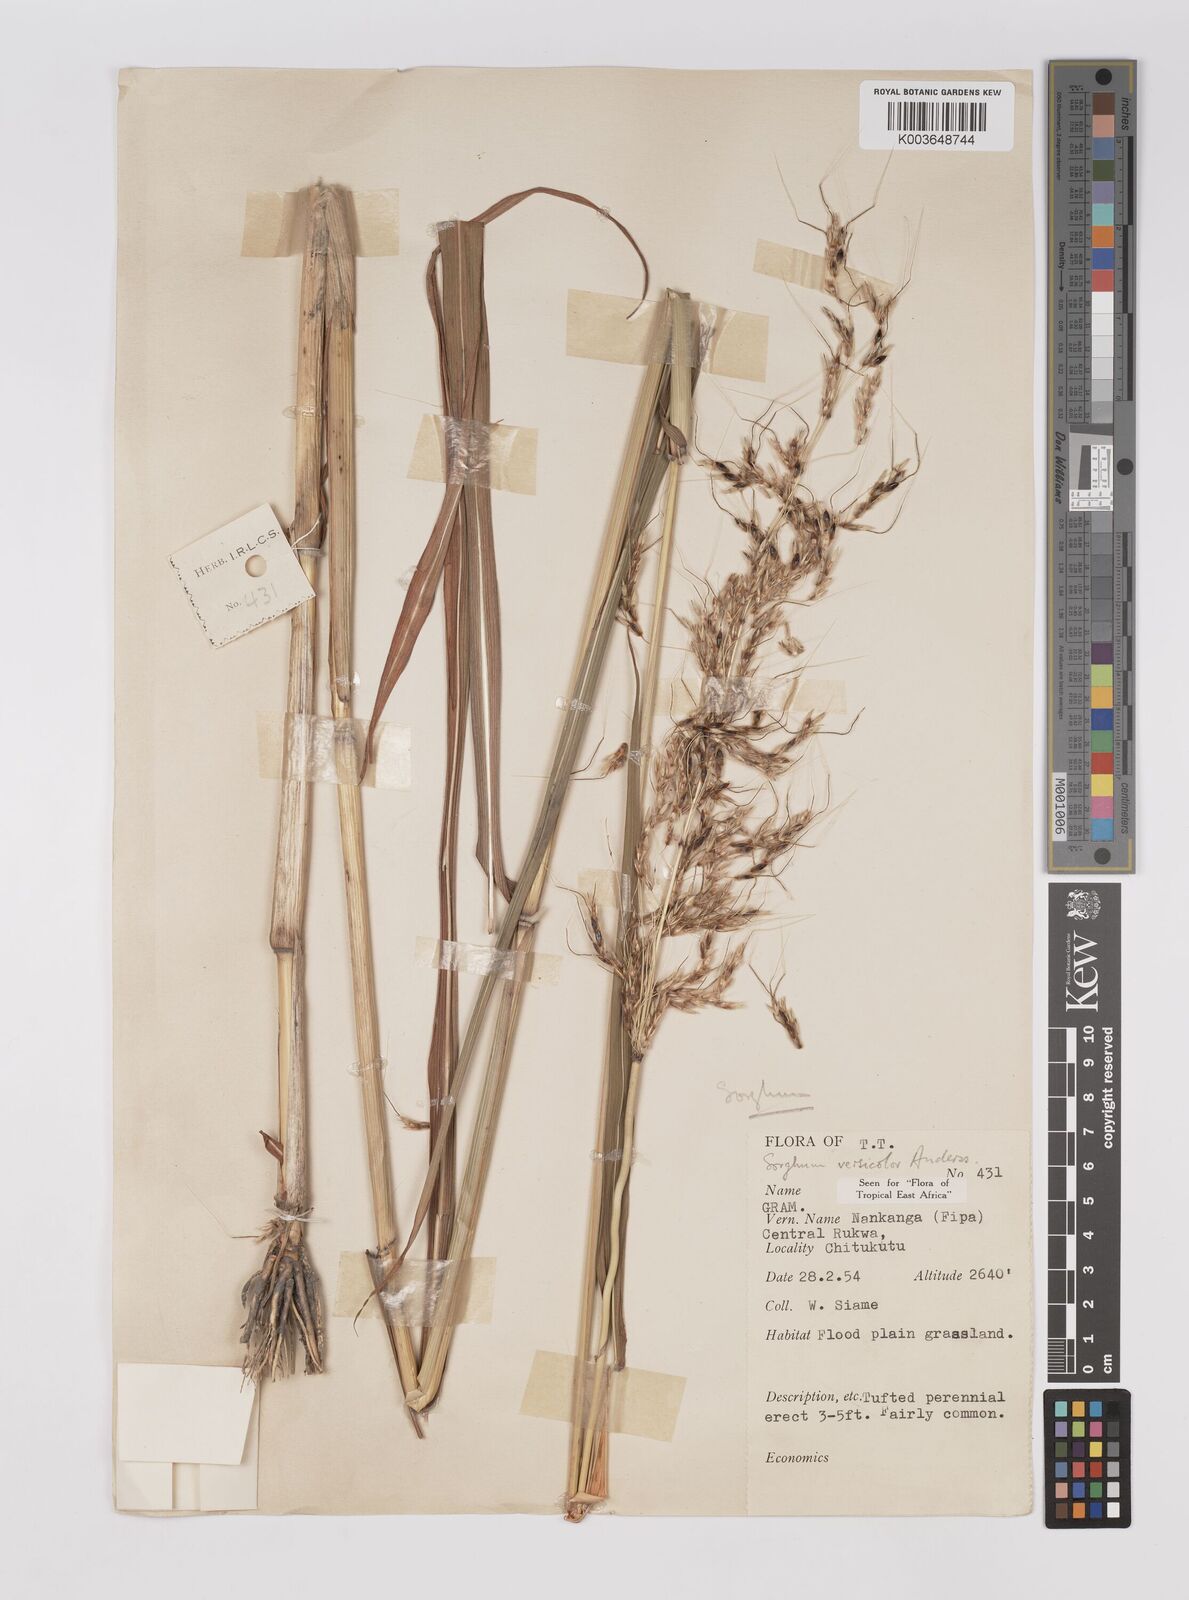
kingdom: Plantae
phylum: Tracheophyta
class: Liliopsida
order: Poales
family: Poaceae
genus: Sarga
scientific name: Sarga versicolor
